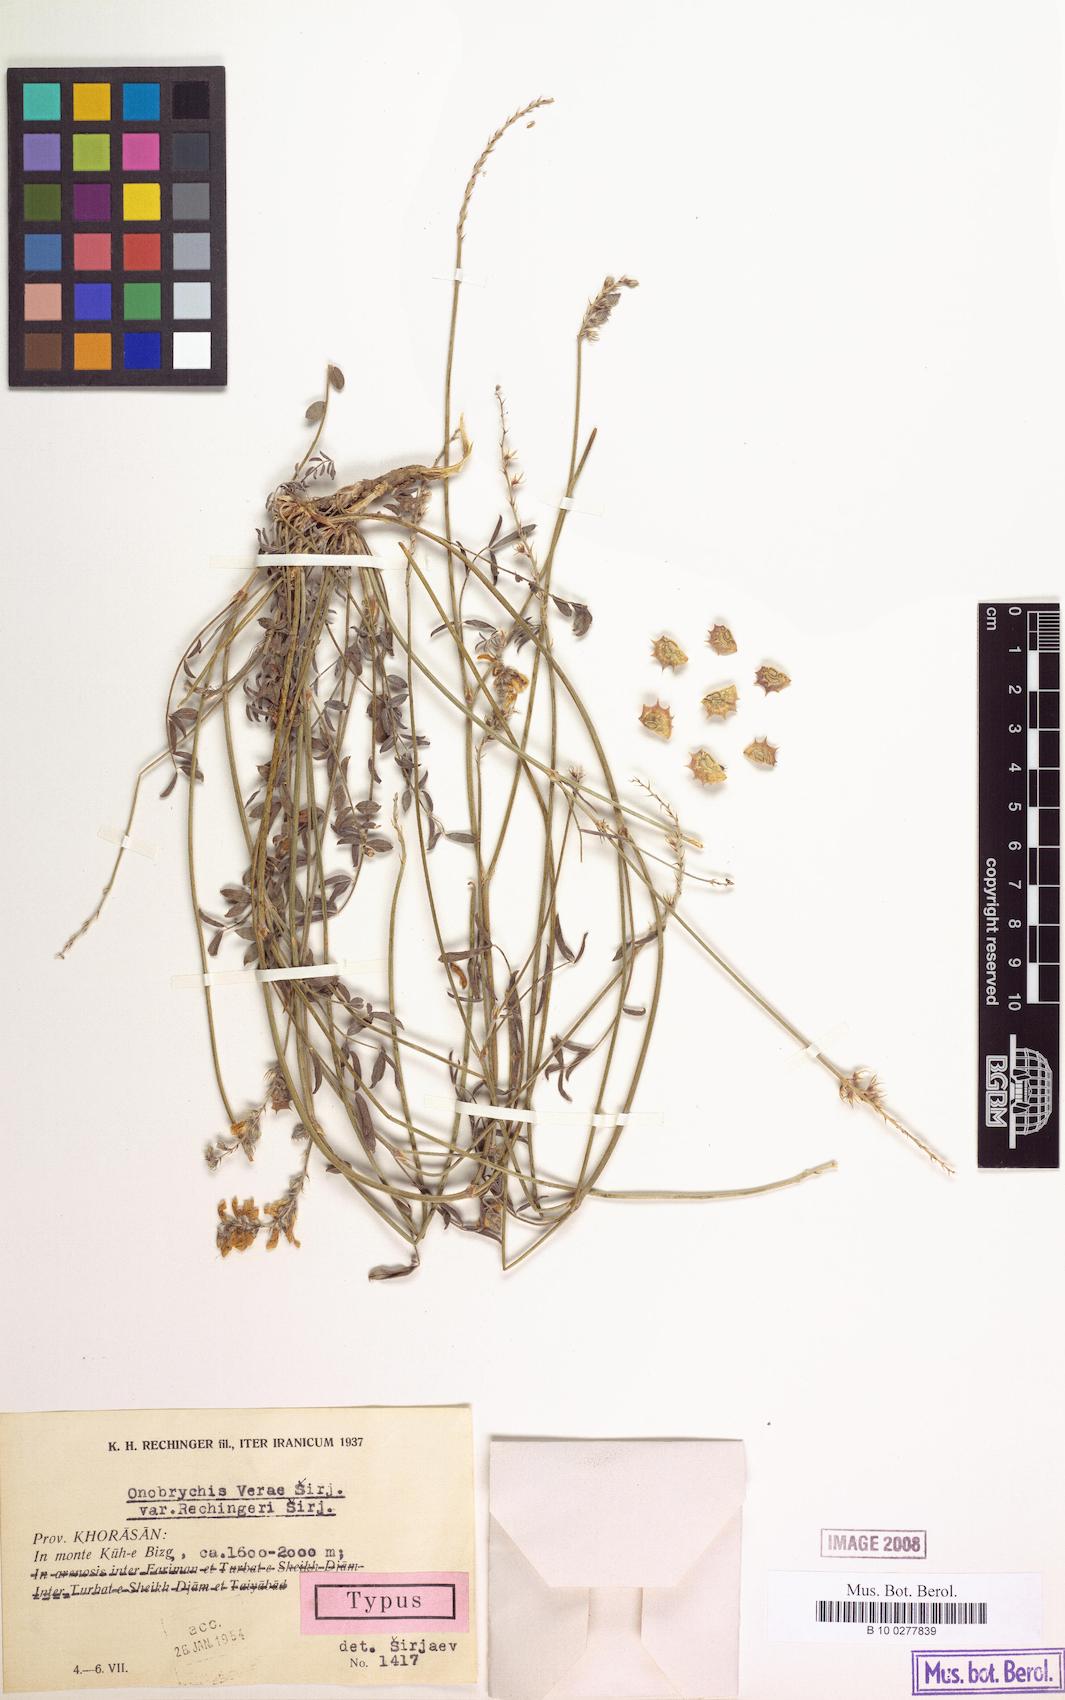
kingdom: Plantae
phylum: Tracheophyta
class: Magnoliopsida
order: Fabales
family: Fabaceae
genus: Onobrychis
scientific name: Onobrychis verae
